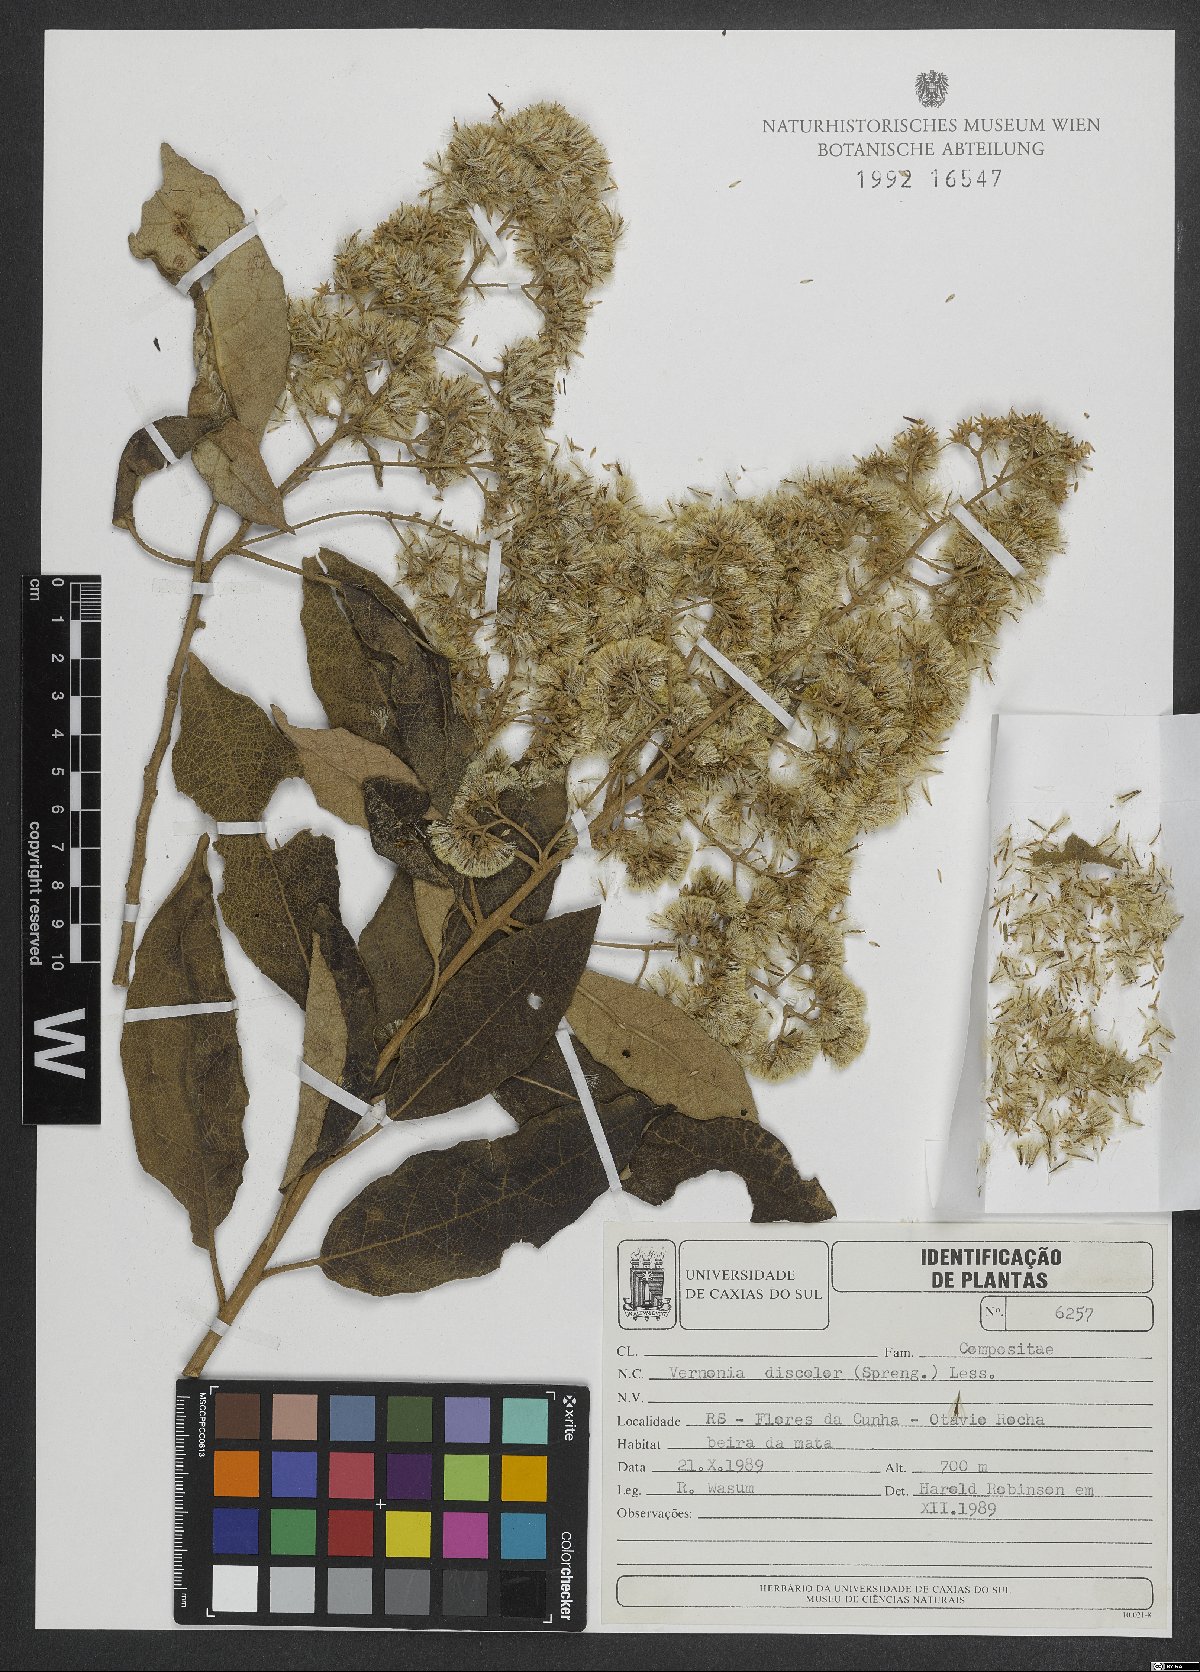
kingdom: Plantae
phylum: Tracheophyta
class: Magnoliopsida
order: Asterales
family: Asteraceae
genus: Vernonanthura
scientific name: Vernonanthura discolor
